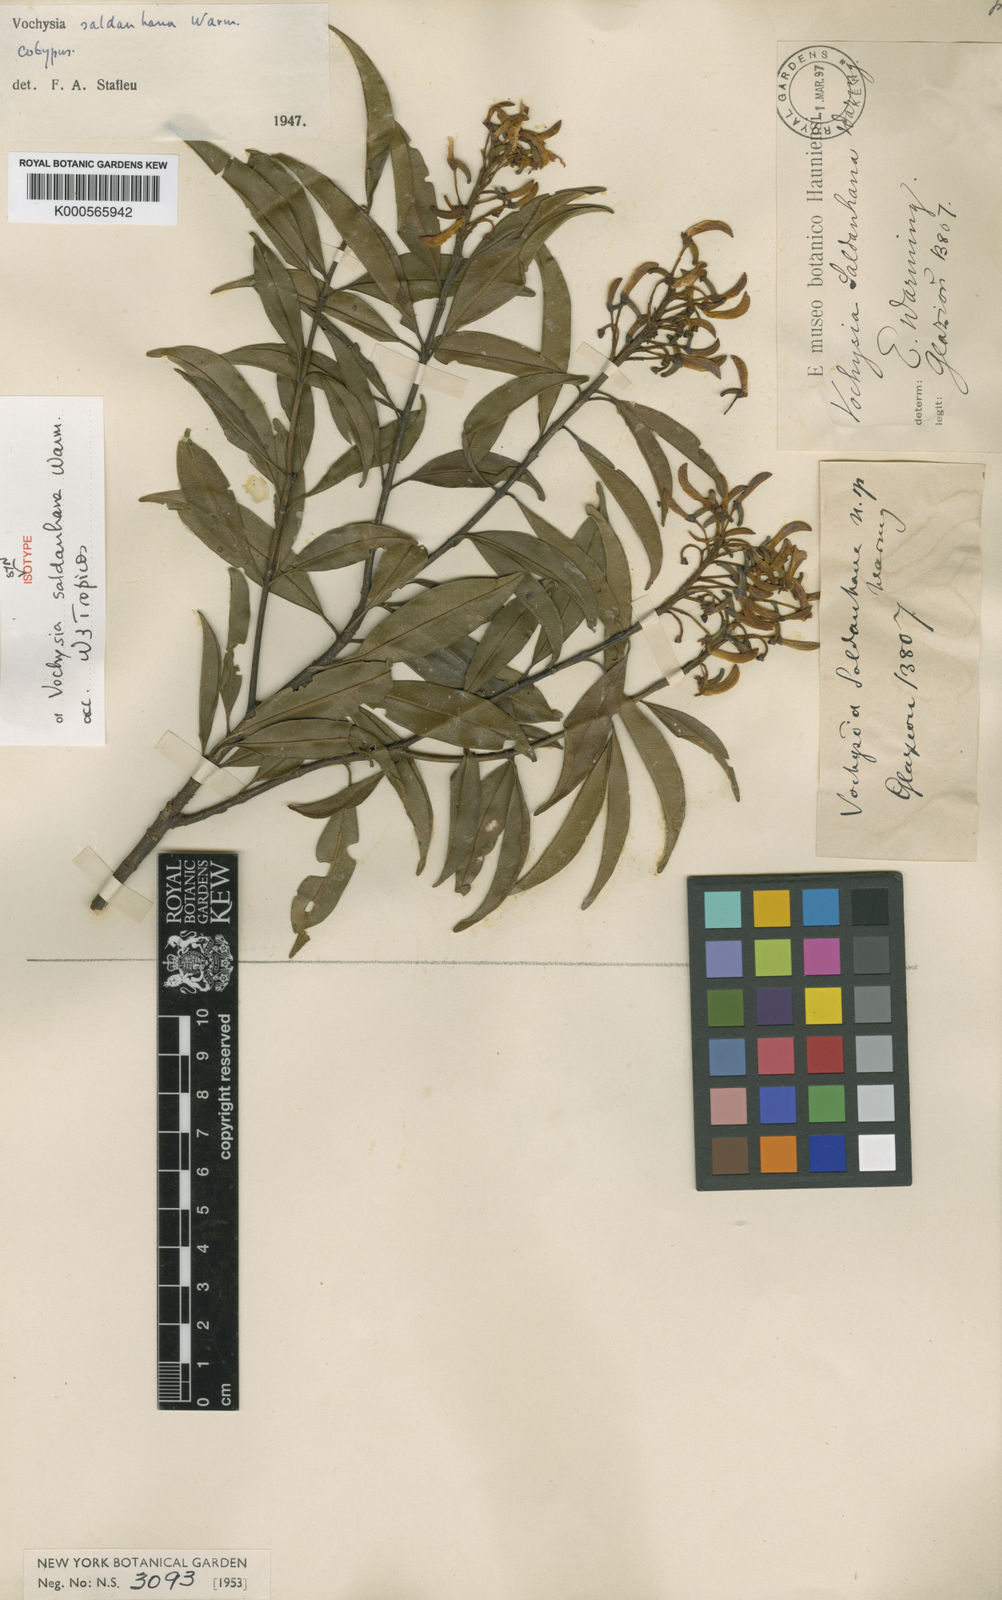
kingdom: Plantae
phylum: Tracheophyta
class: Magnoliopsida
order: Myrtales
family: Vochysiaceae
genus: Vochysia
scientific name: Vochysia saldanhana
